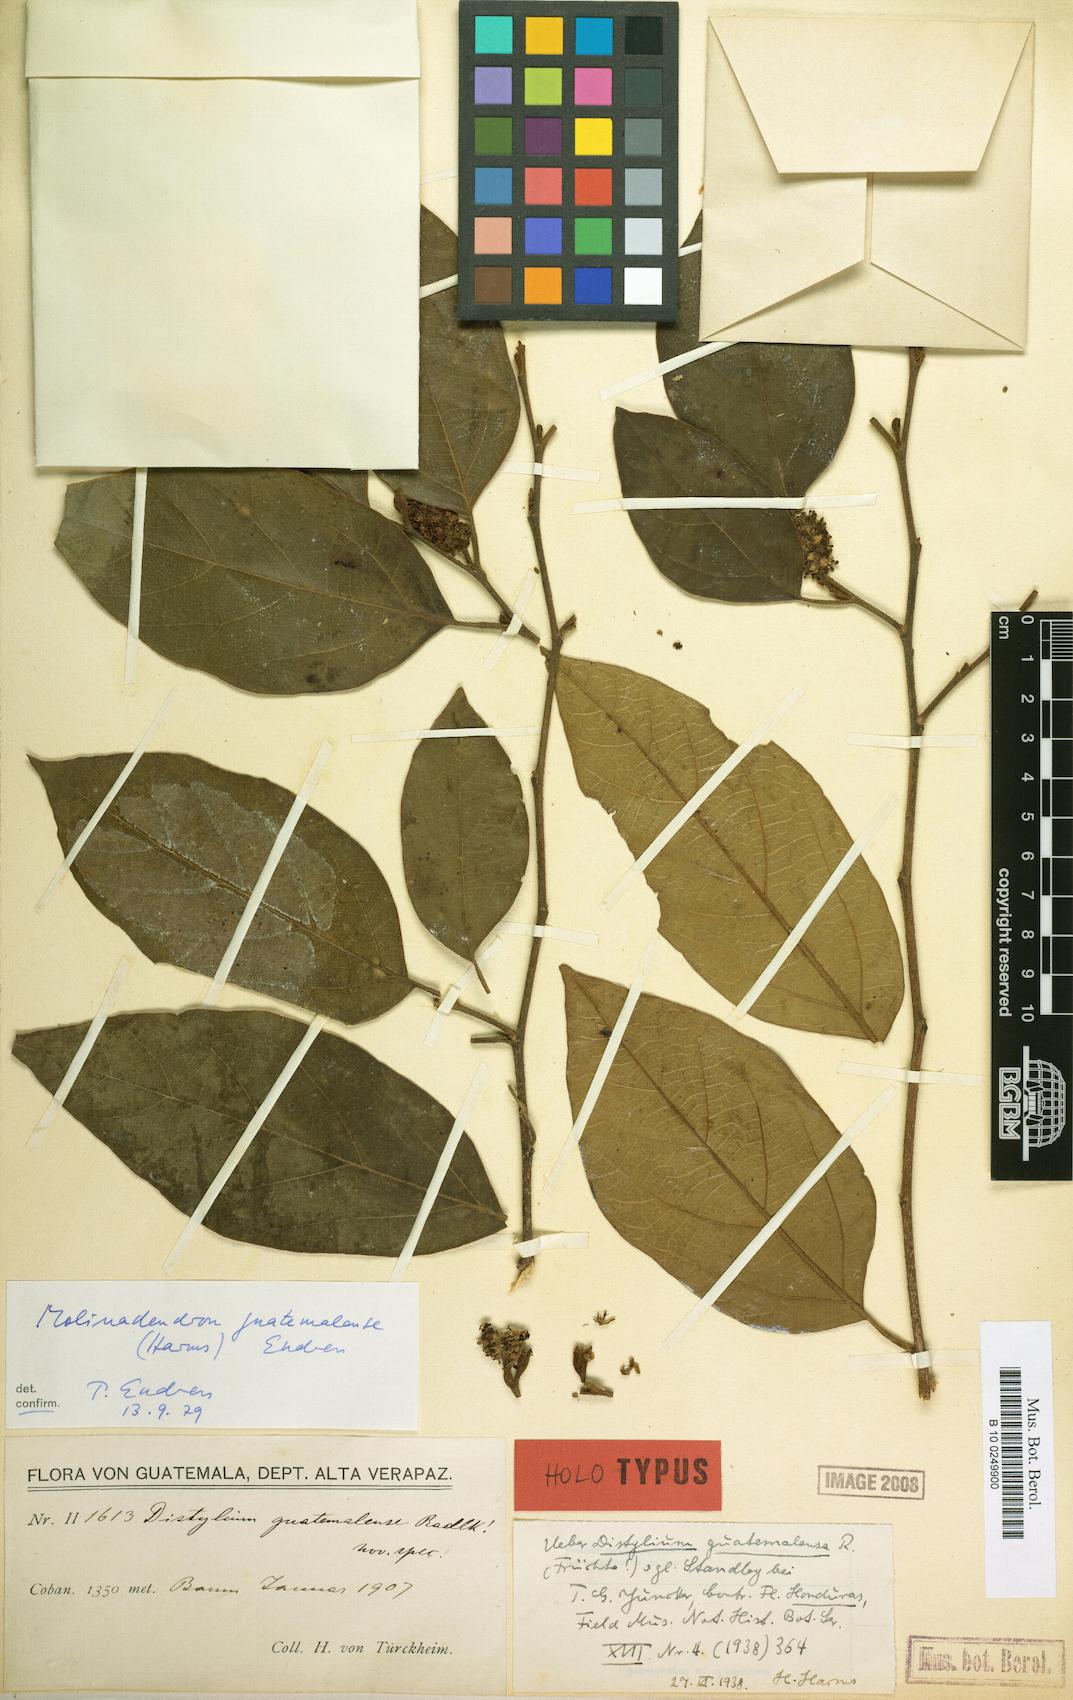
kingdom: Plantae
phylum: Tracheophyta
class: Magnoliopsida
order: Saxifragales
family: Hamamelidaceae
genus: Molinadendron
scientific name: Molinadendron guatemalense
